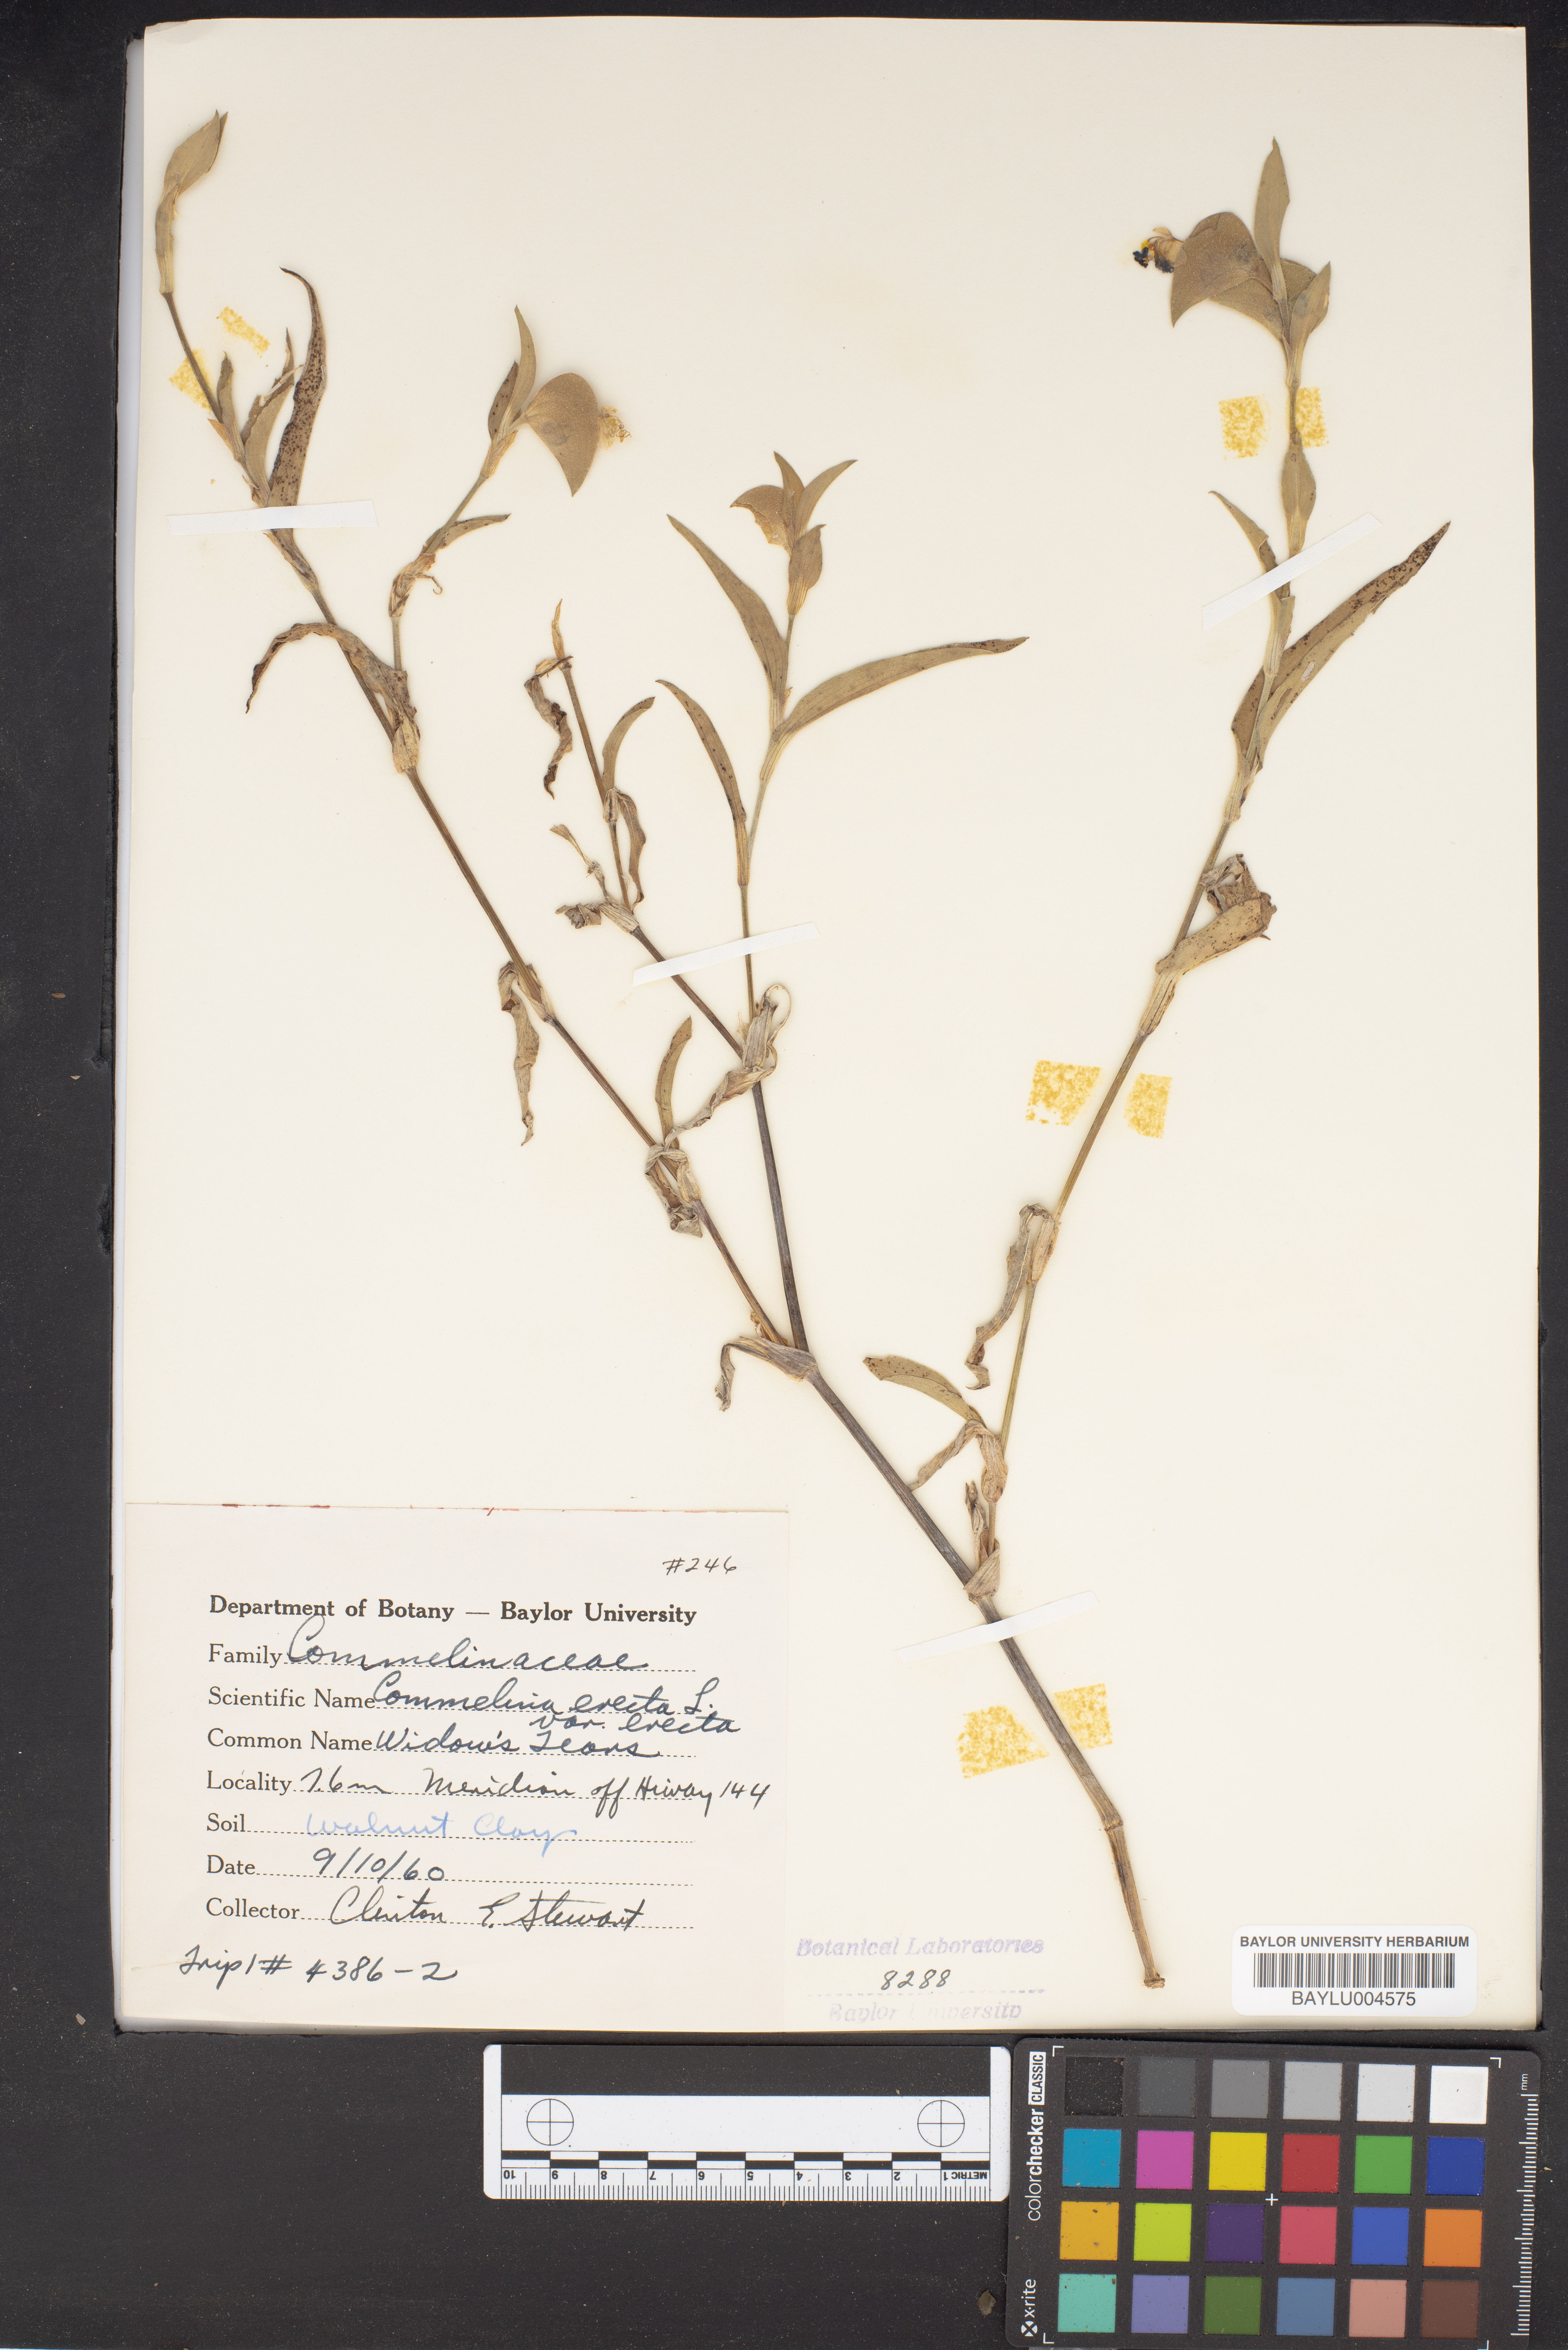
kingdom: Plantae
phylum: Tracheophyta
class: Liliopsida
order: Commelinales
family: Commelinaceae
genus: Commelina
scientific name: Commelina erecta
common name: Blousel blommetjie
